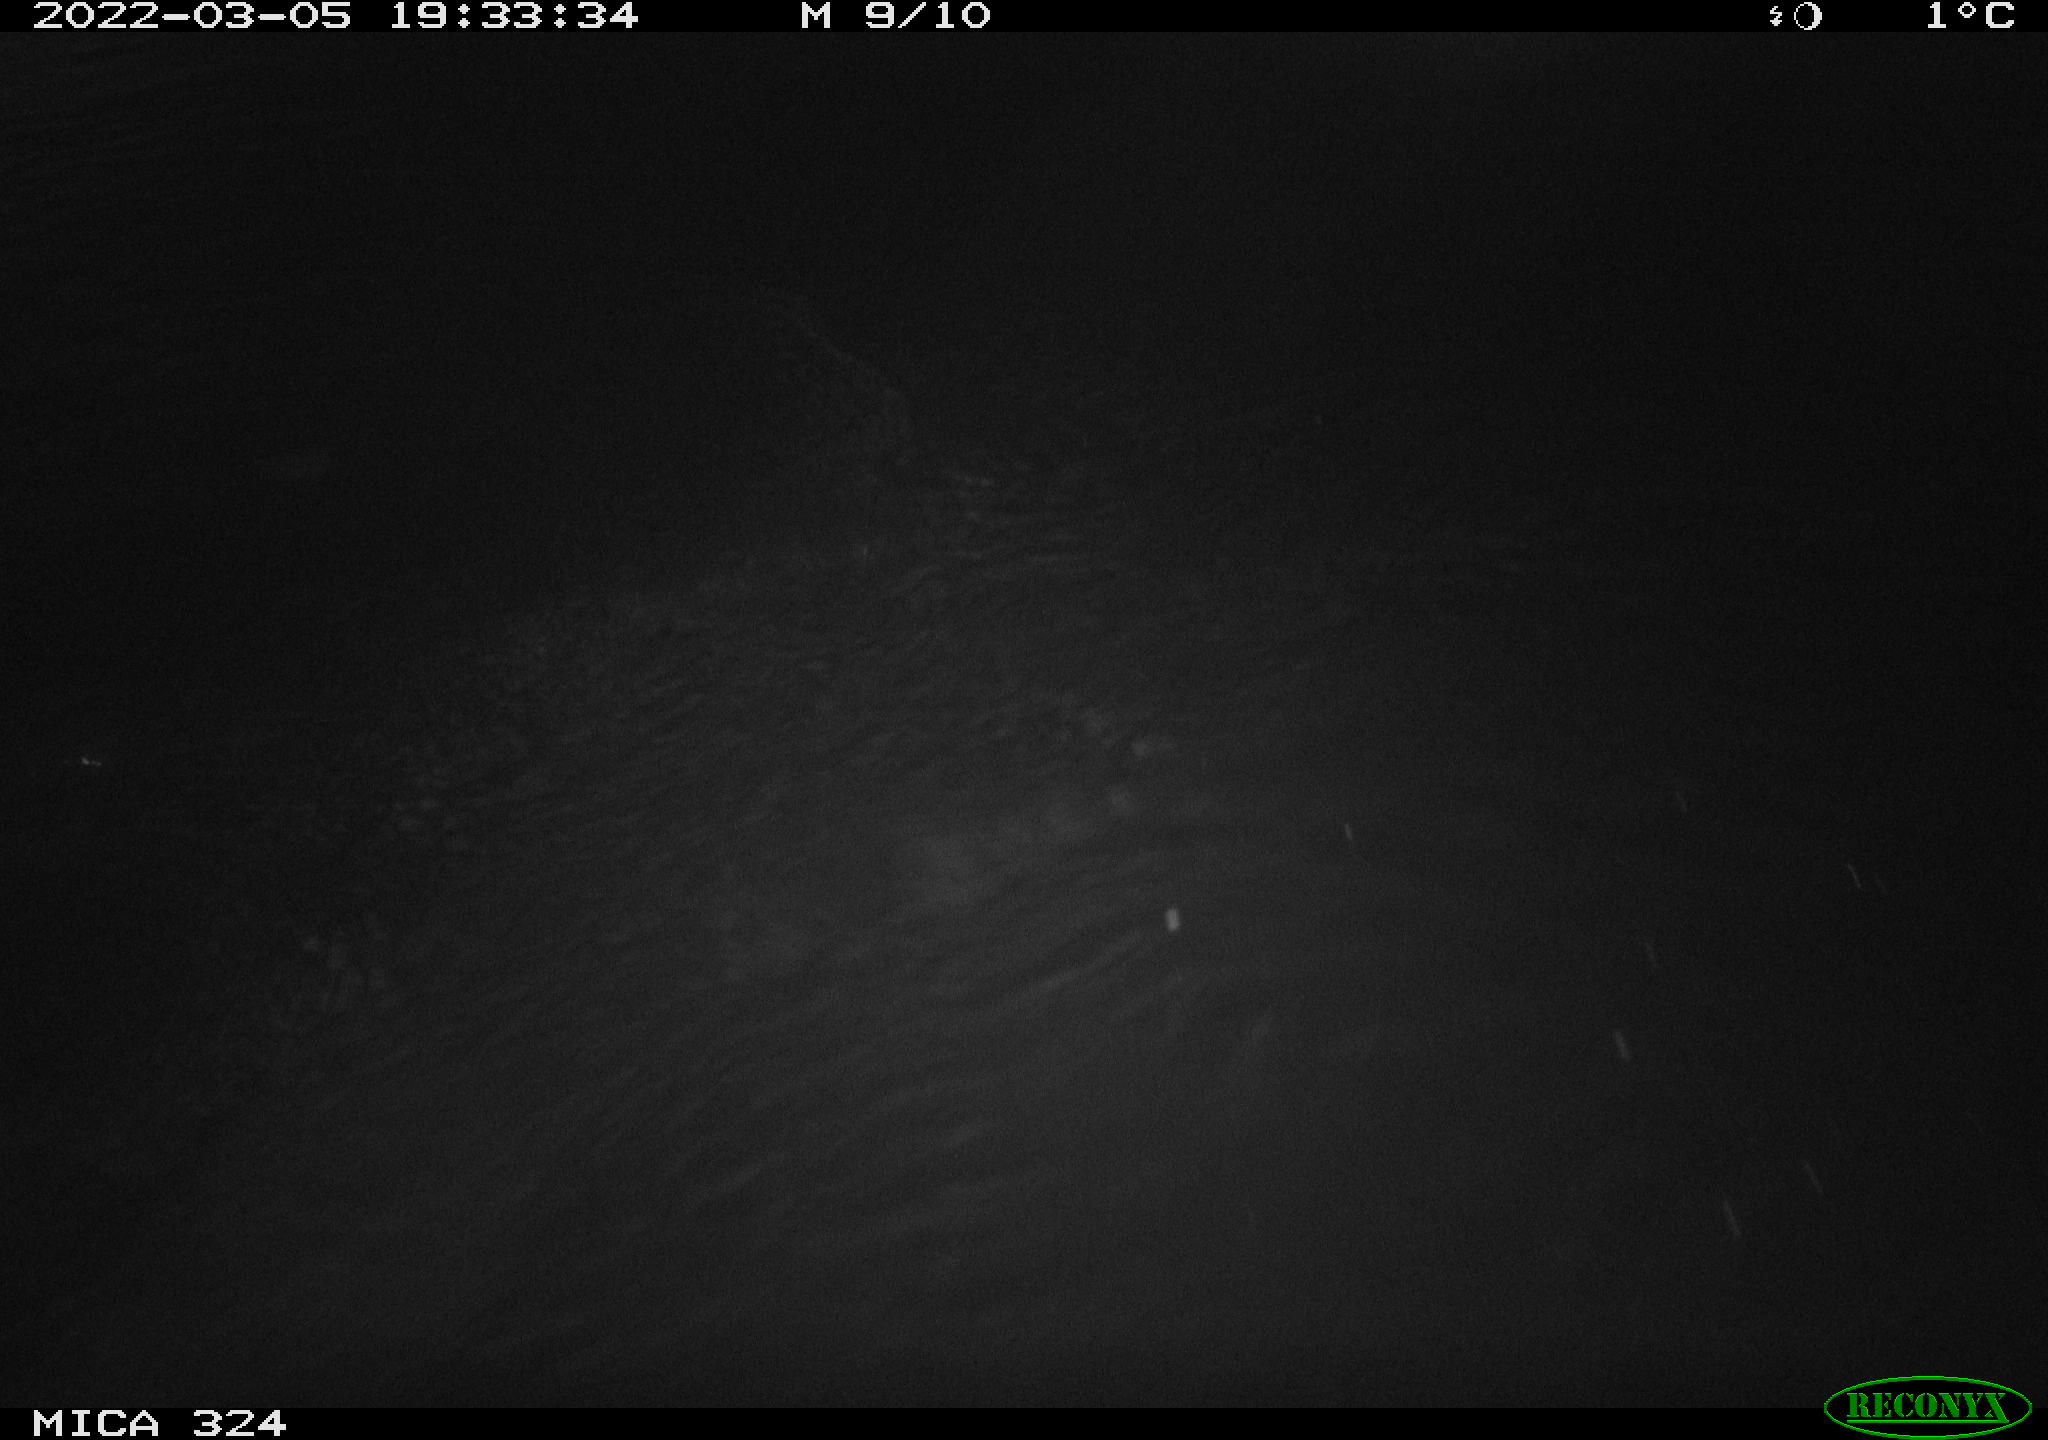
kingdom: Animalia
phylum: Chordata
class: Mammalia
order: Rodentia
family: Cricetidae
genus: Ondatra
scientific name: Ondatra zibethicus
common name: Muskrat
